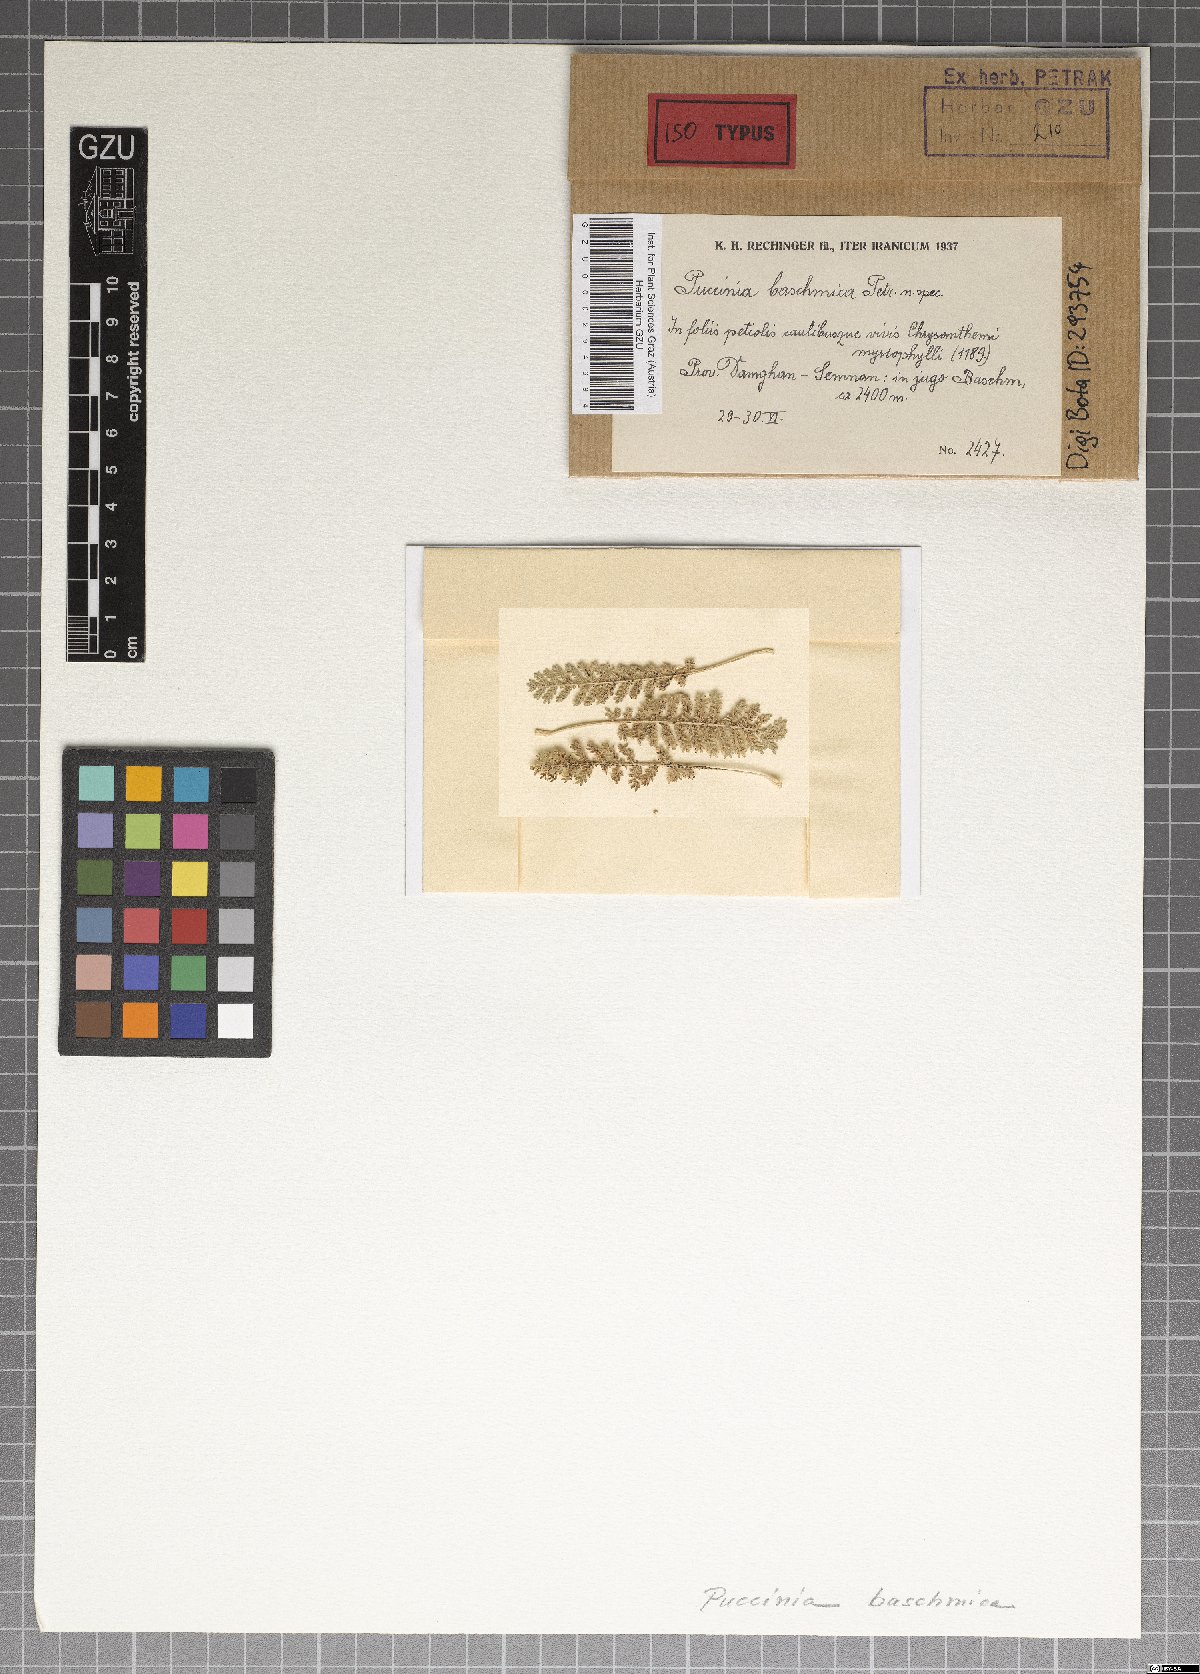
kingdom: Fungi
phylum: Basidiomycota
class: Pucciniomycetes
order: Pucciniales
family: Pucciniaceae
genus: Puccinia
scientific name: Puccinia baschmica
